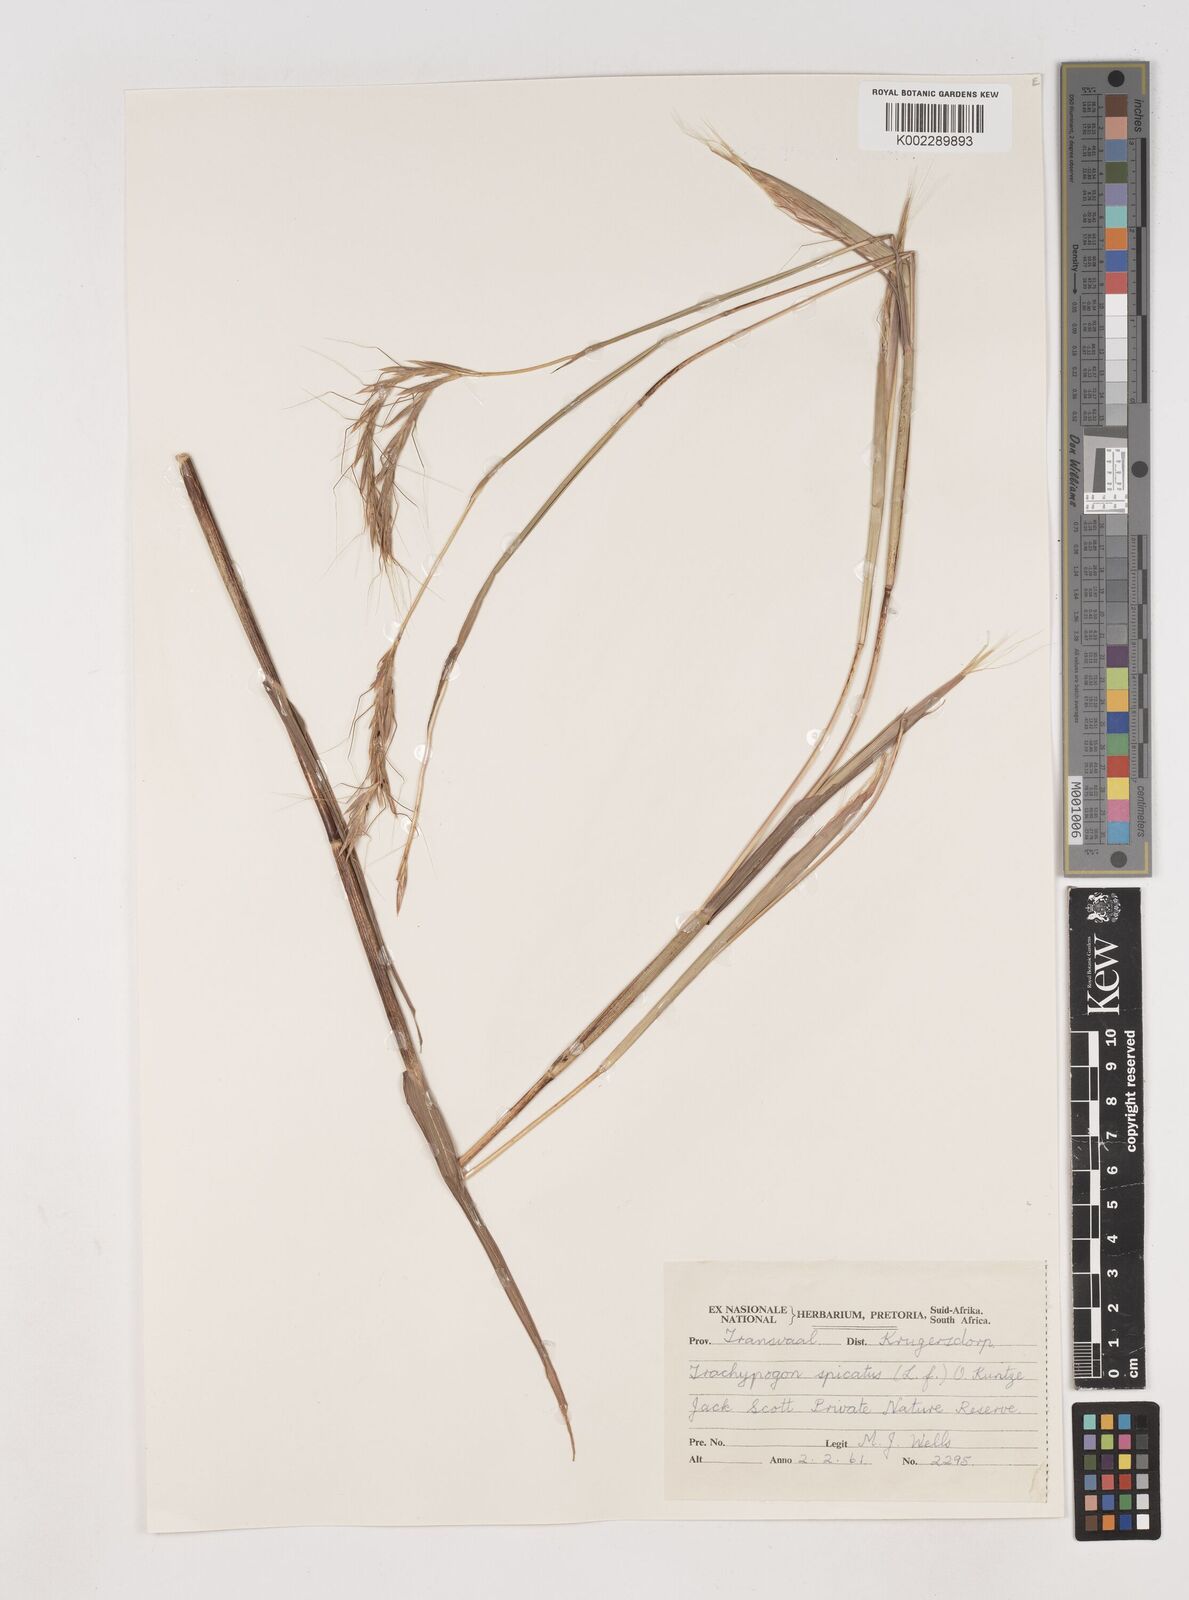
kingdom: Plantae
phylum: Tracheophyta
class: Liliopsida
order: Poales
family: Poaceae
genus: Diheteropogon
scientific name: Diheteropogon amplectens
